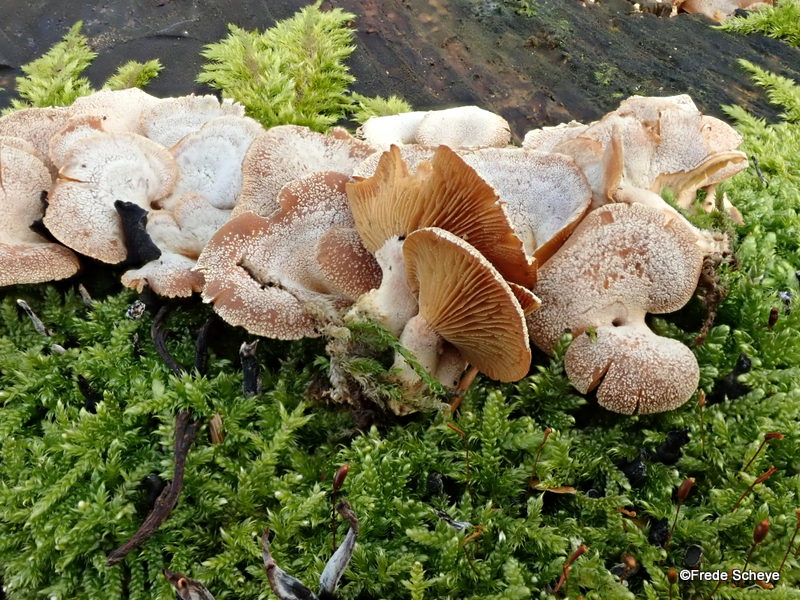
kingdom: Fungi
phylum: Basidiomycota
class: Agaricomycetes
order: Agaricales
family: Mycenaceae
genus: Panellus
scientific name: Panellus stipticus
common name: kliddet epaulethat
